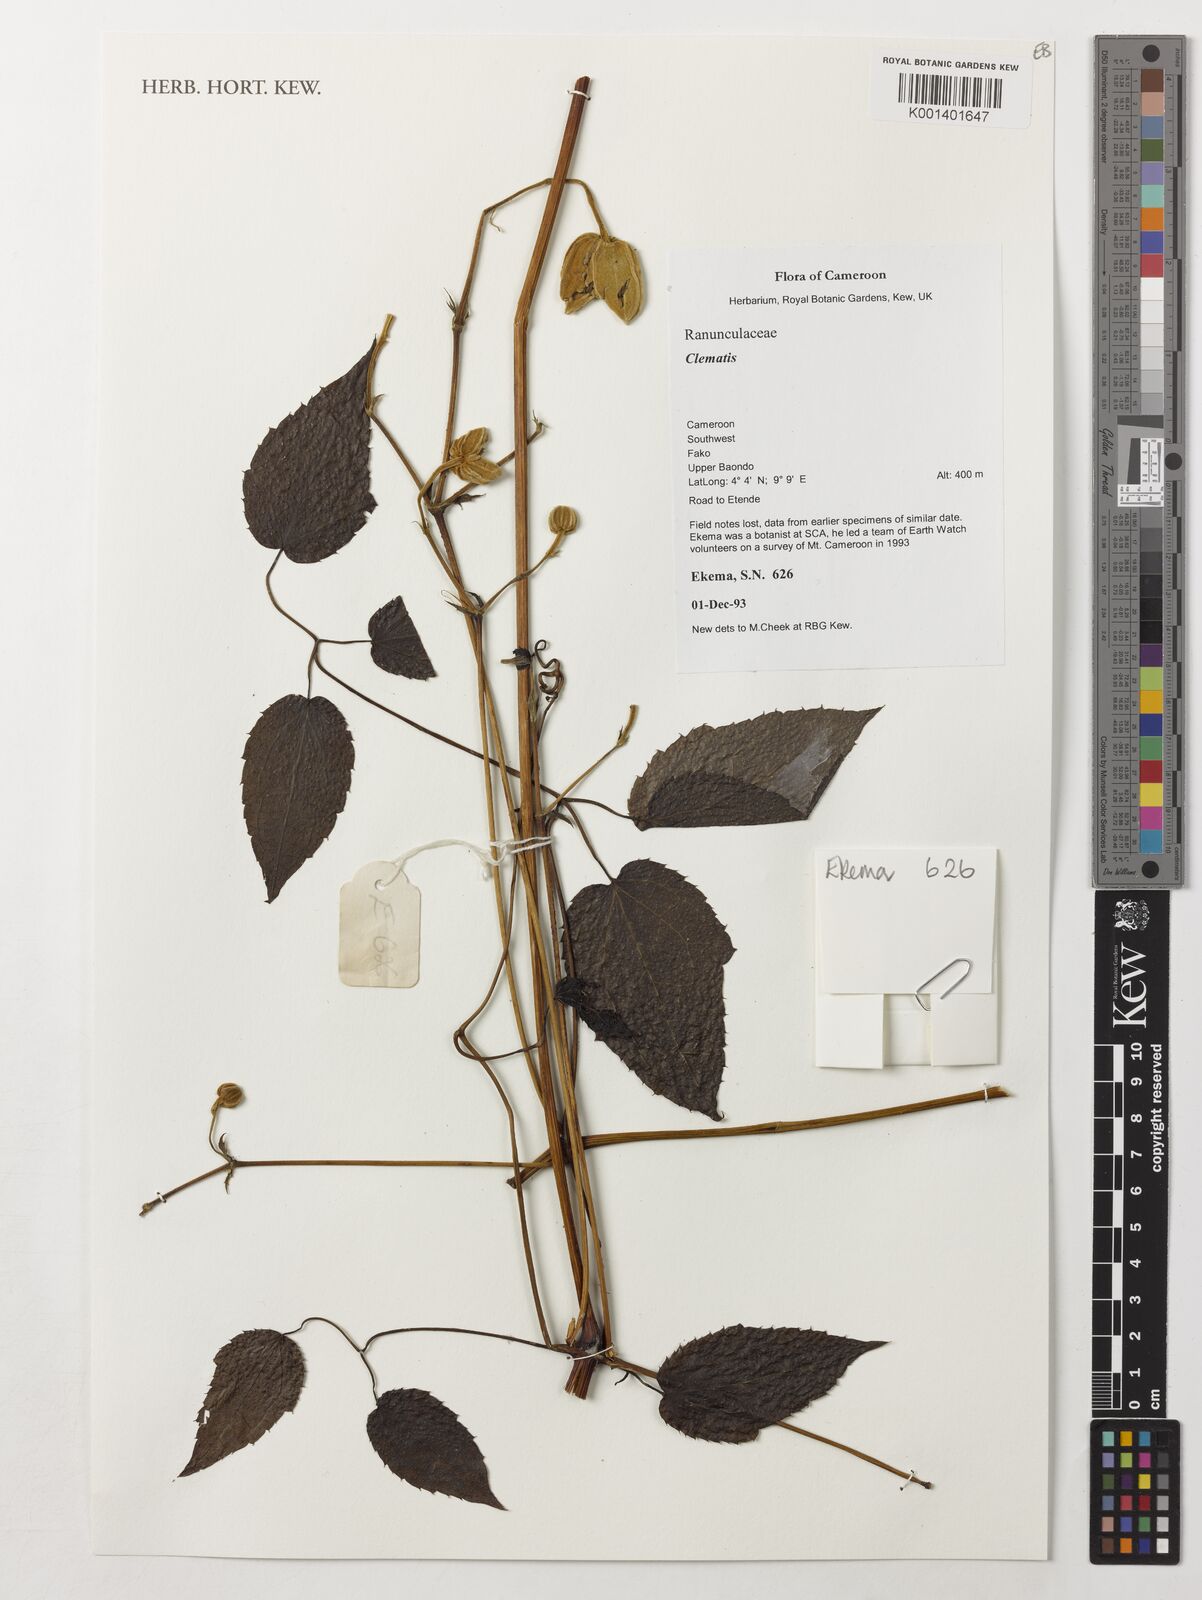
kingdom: Plantae
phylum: Tracheophyta
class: Magnoliopsida
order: Ranunculales
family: Ranunculaceae
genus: Clematis
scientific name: Clematis
